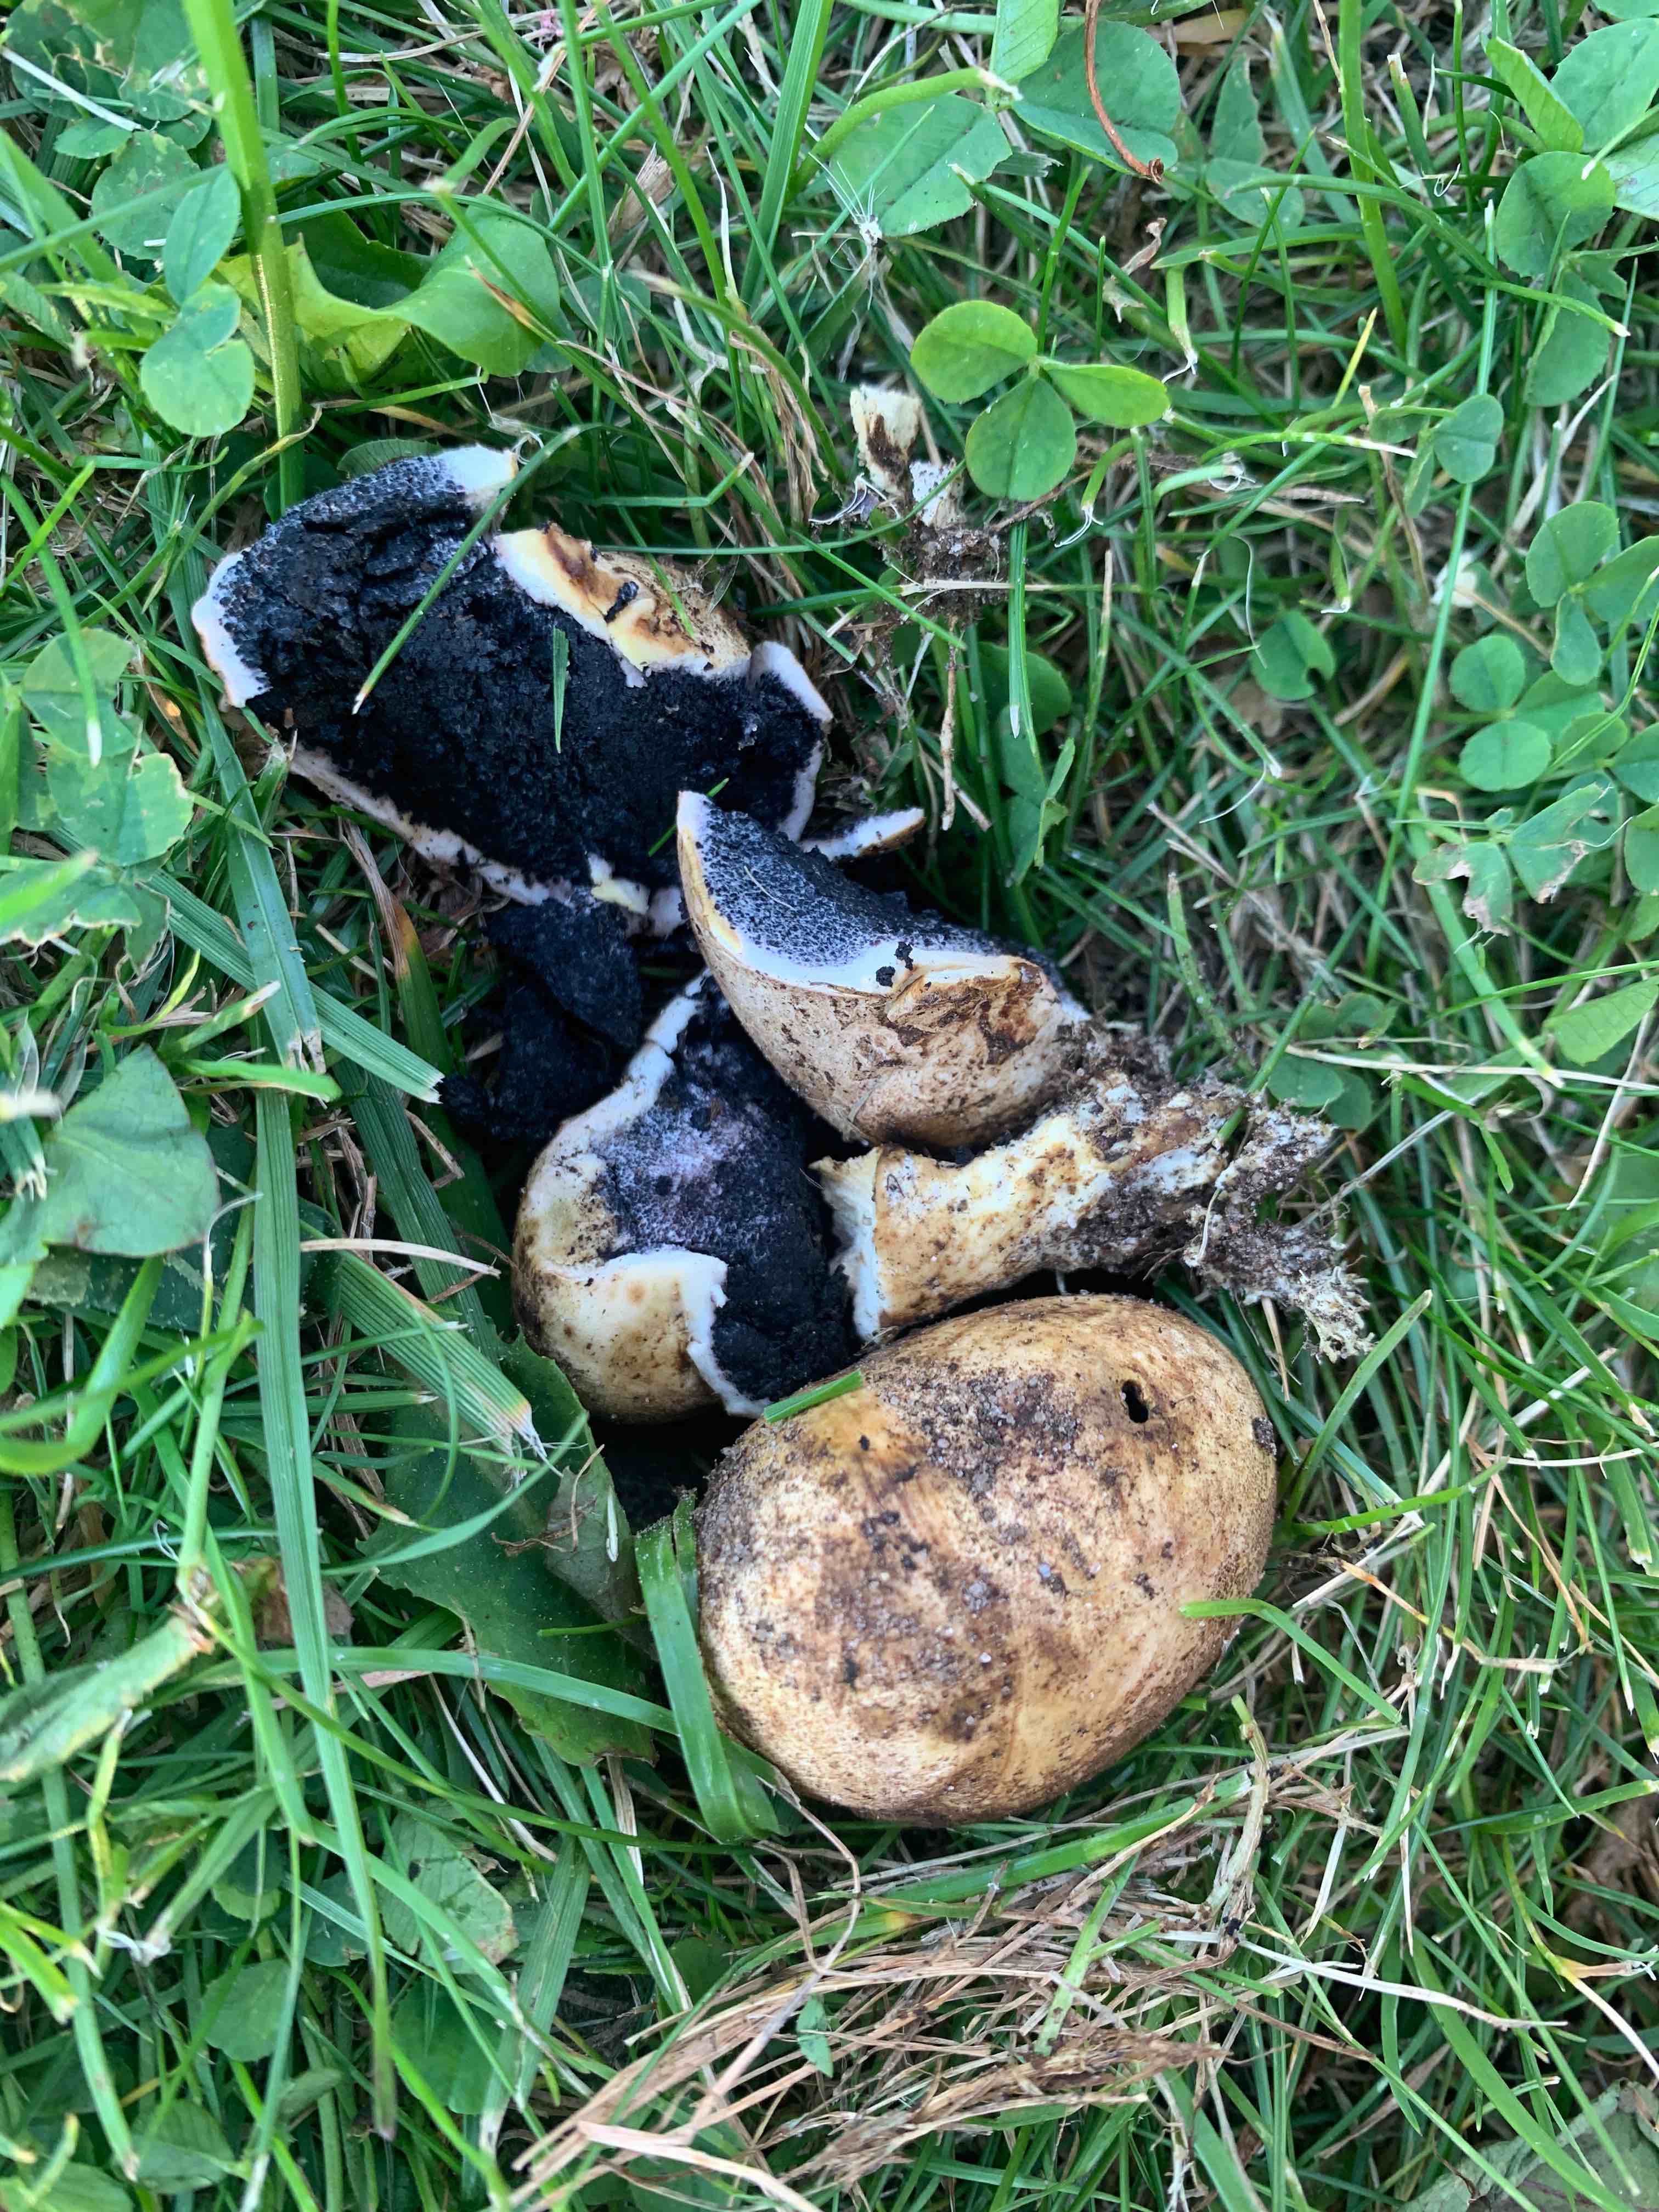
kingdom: Fungi
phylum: Basidiomycota
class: Agaricomycetes
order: Boletales
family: Sclerodermataceae
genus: Scleroderma
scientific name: Scleroderma bovista
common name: bovist-bruskbold
